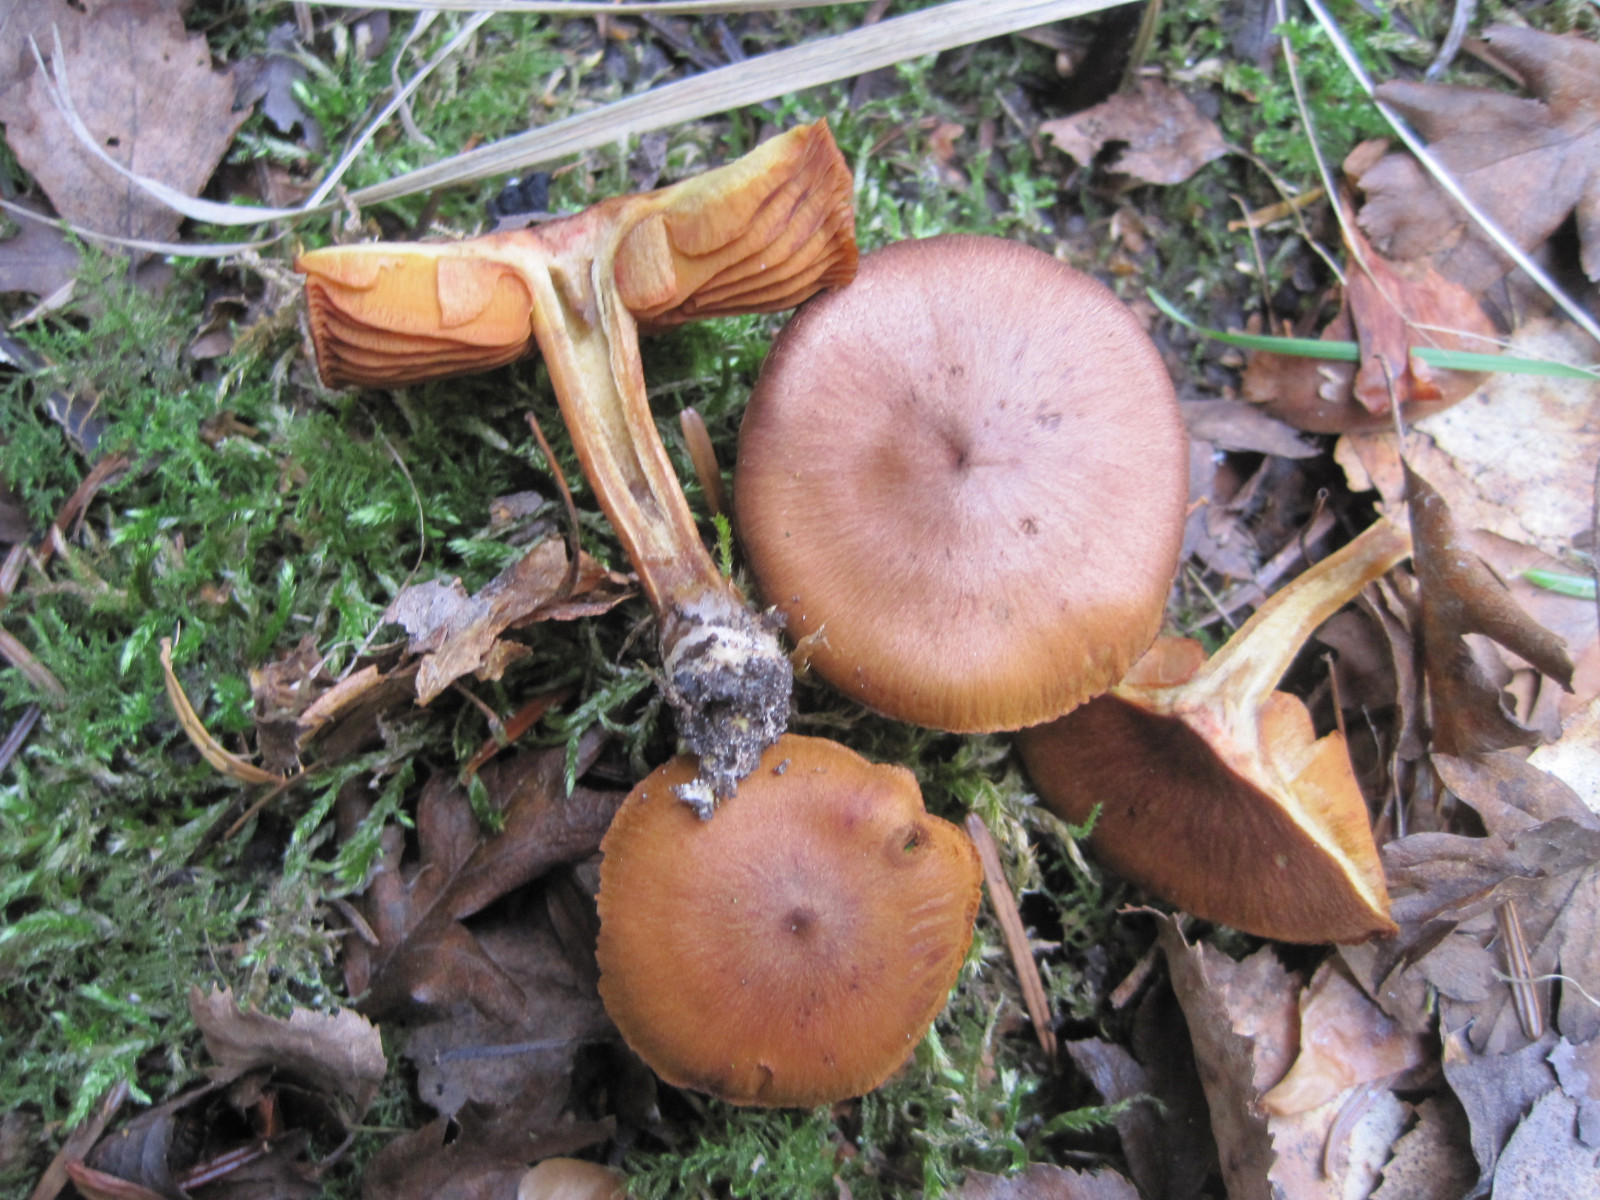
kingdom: Fungi
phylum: Basidiomycota
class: Agaricomycetes
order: Agaricales
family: Cortinariaceae
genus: Cortinarius
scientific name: Cortinarius malicorius
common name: grønkødet slørhat
